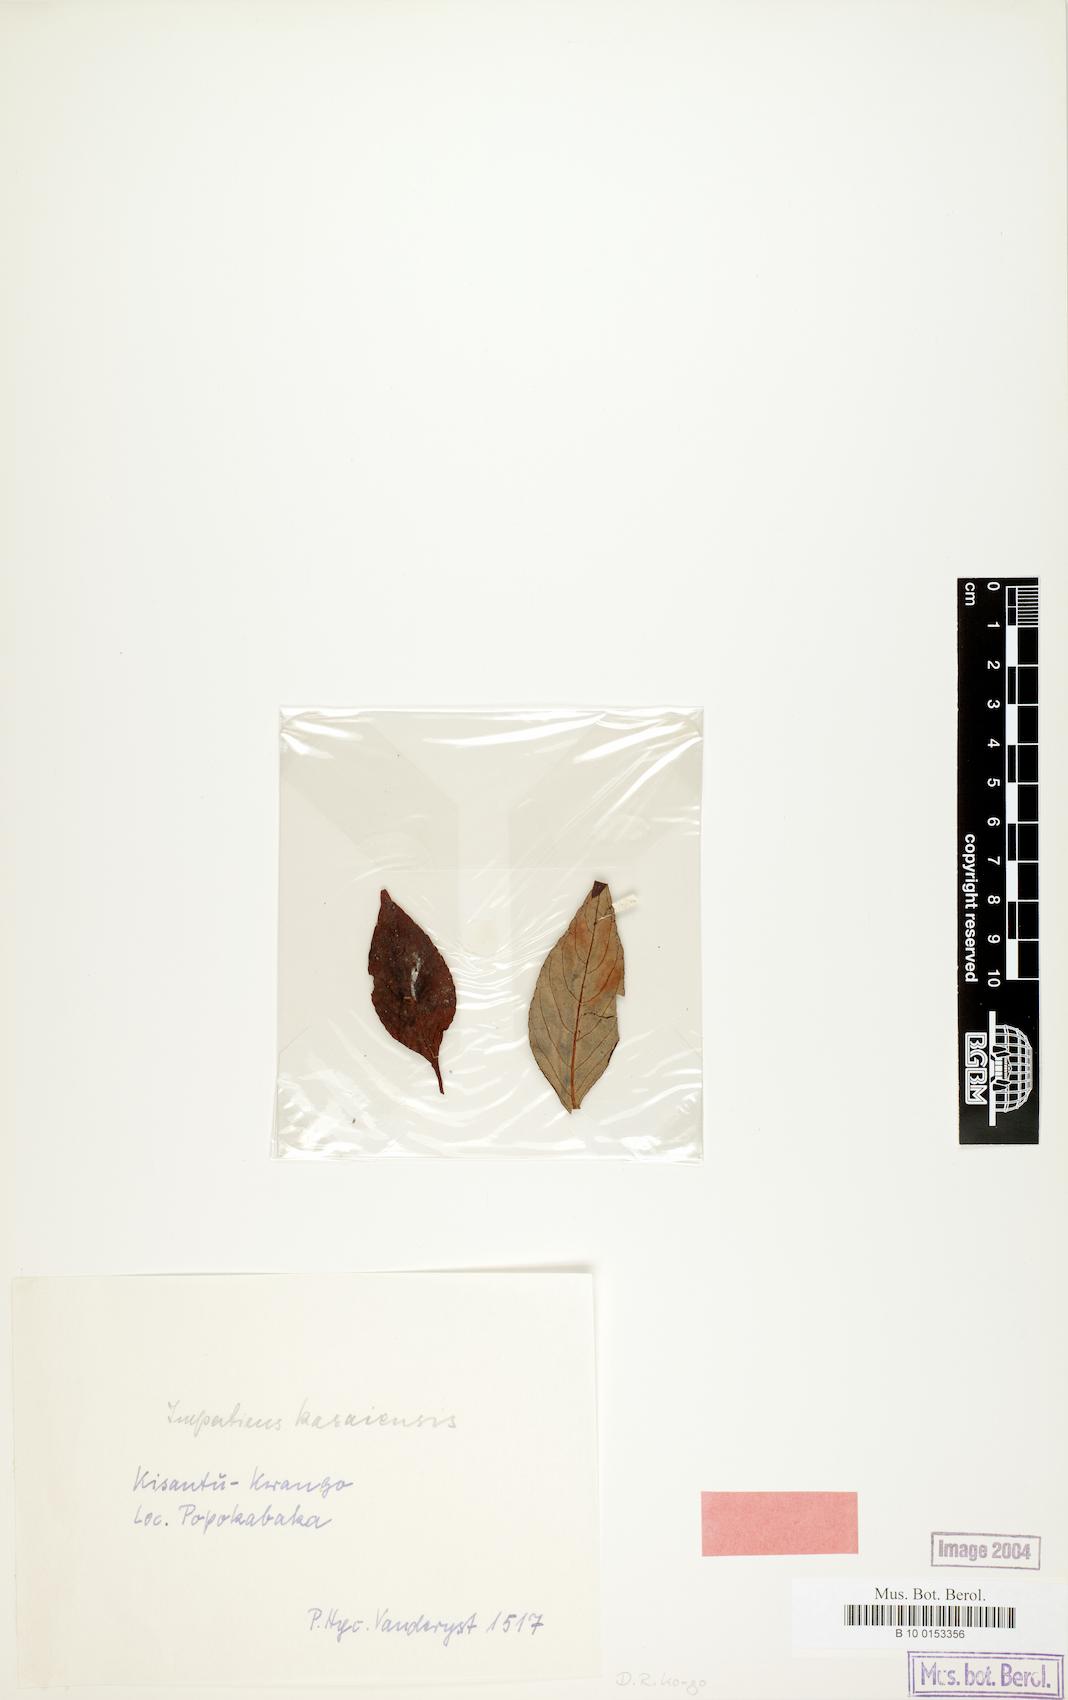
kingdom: Plantae
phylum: Tracheophyta
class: Magnoliopsida
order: Ericales
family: Balsaminaceae
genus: Impatiens
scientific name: Impatiens gossweileri
